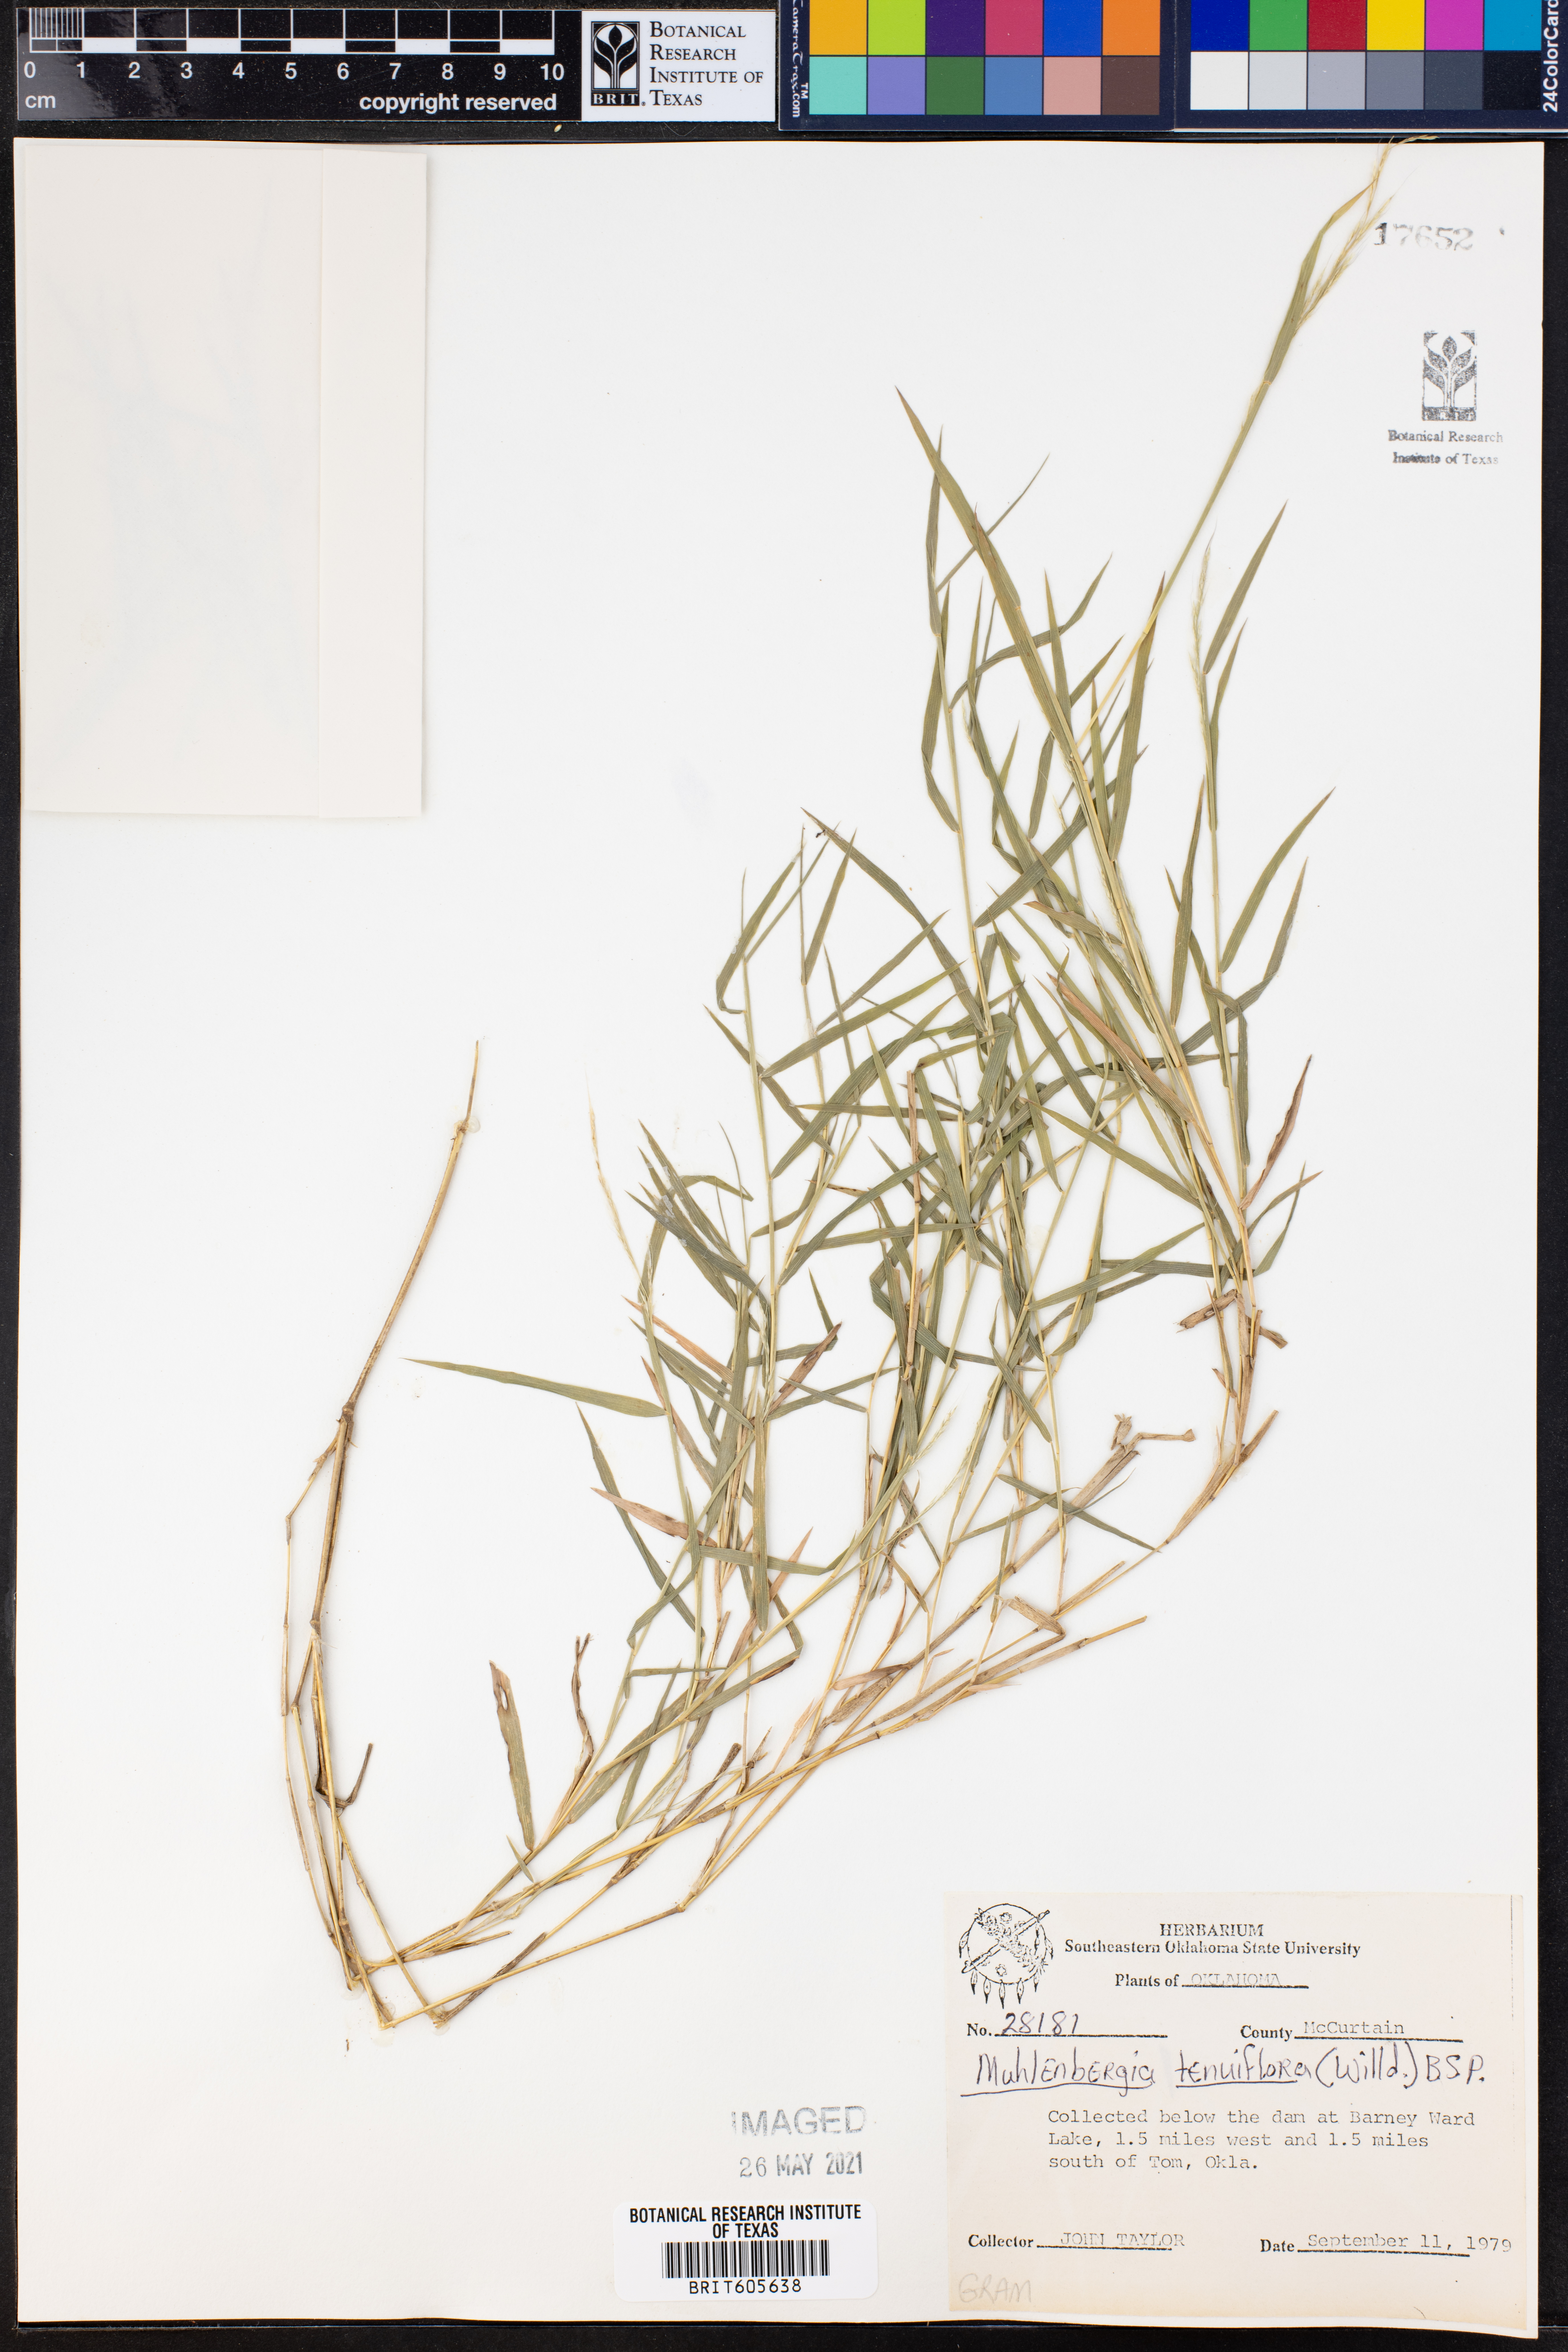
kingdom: Plantae
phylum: Tracheophyta
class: Liliopsida
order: Poales
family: Poaceae
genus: Muhlenbergia
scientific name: Muhlenbergia tenuiflora
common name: Slender muhly
